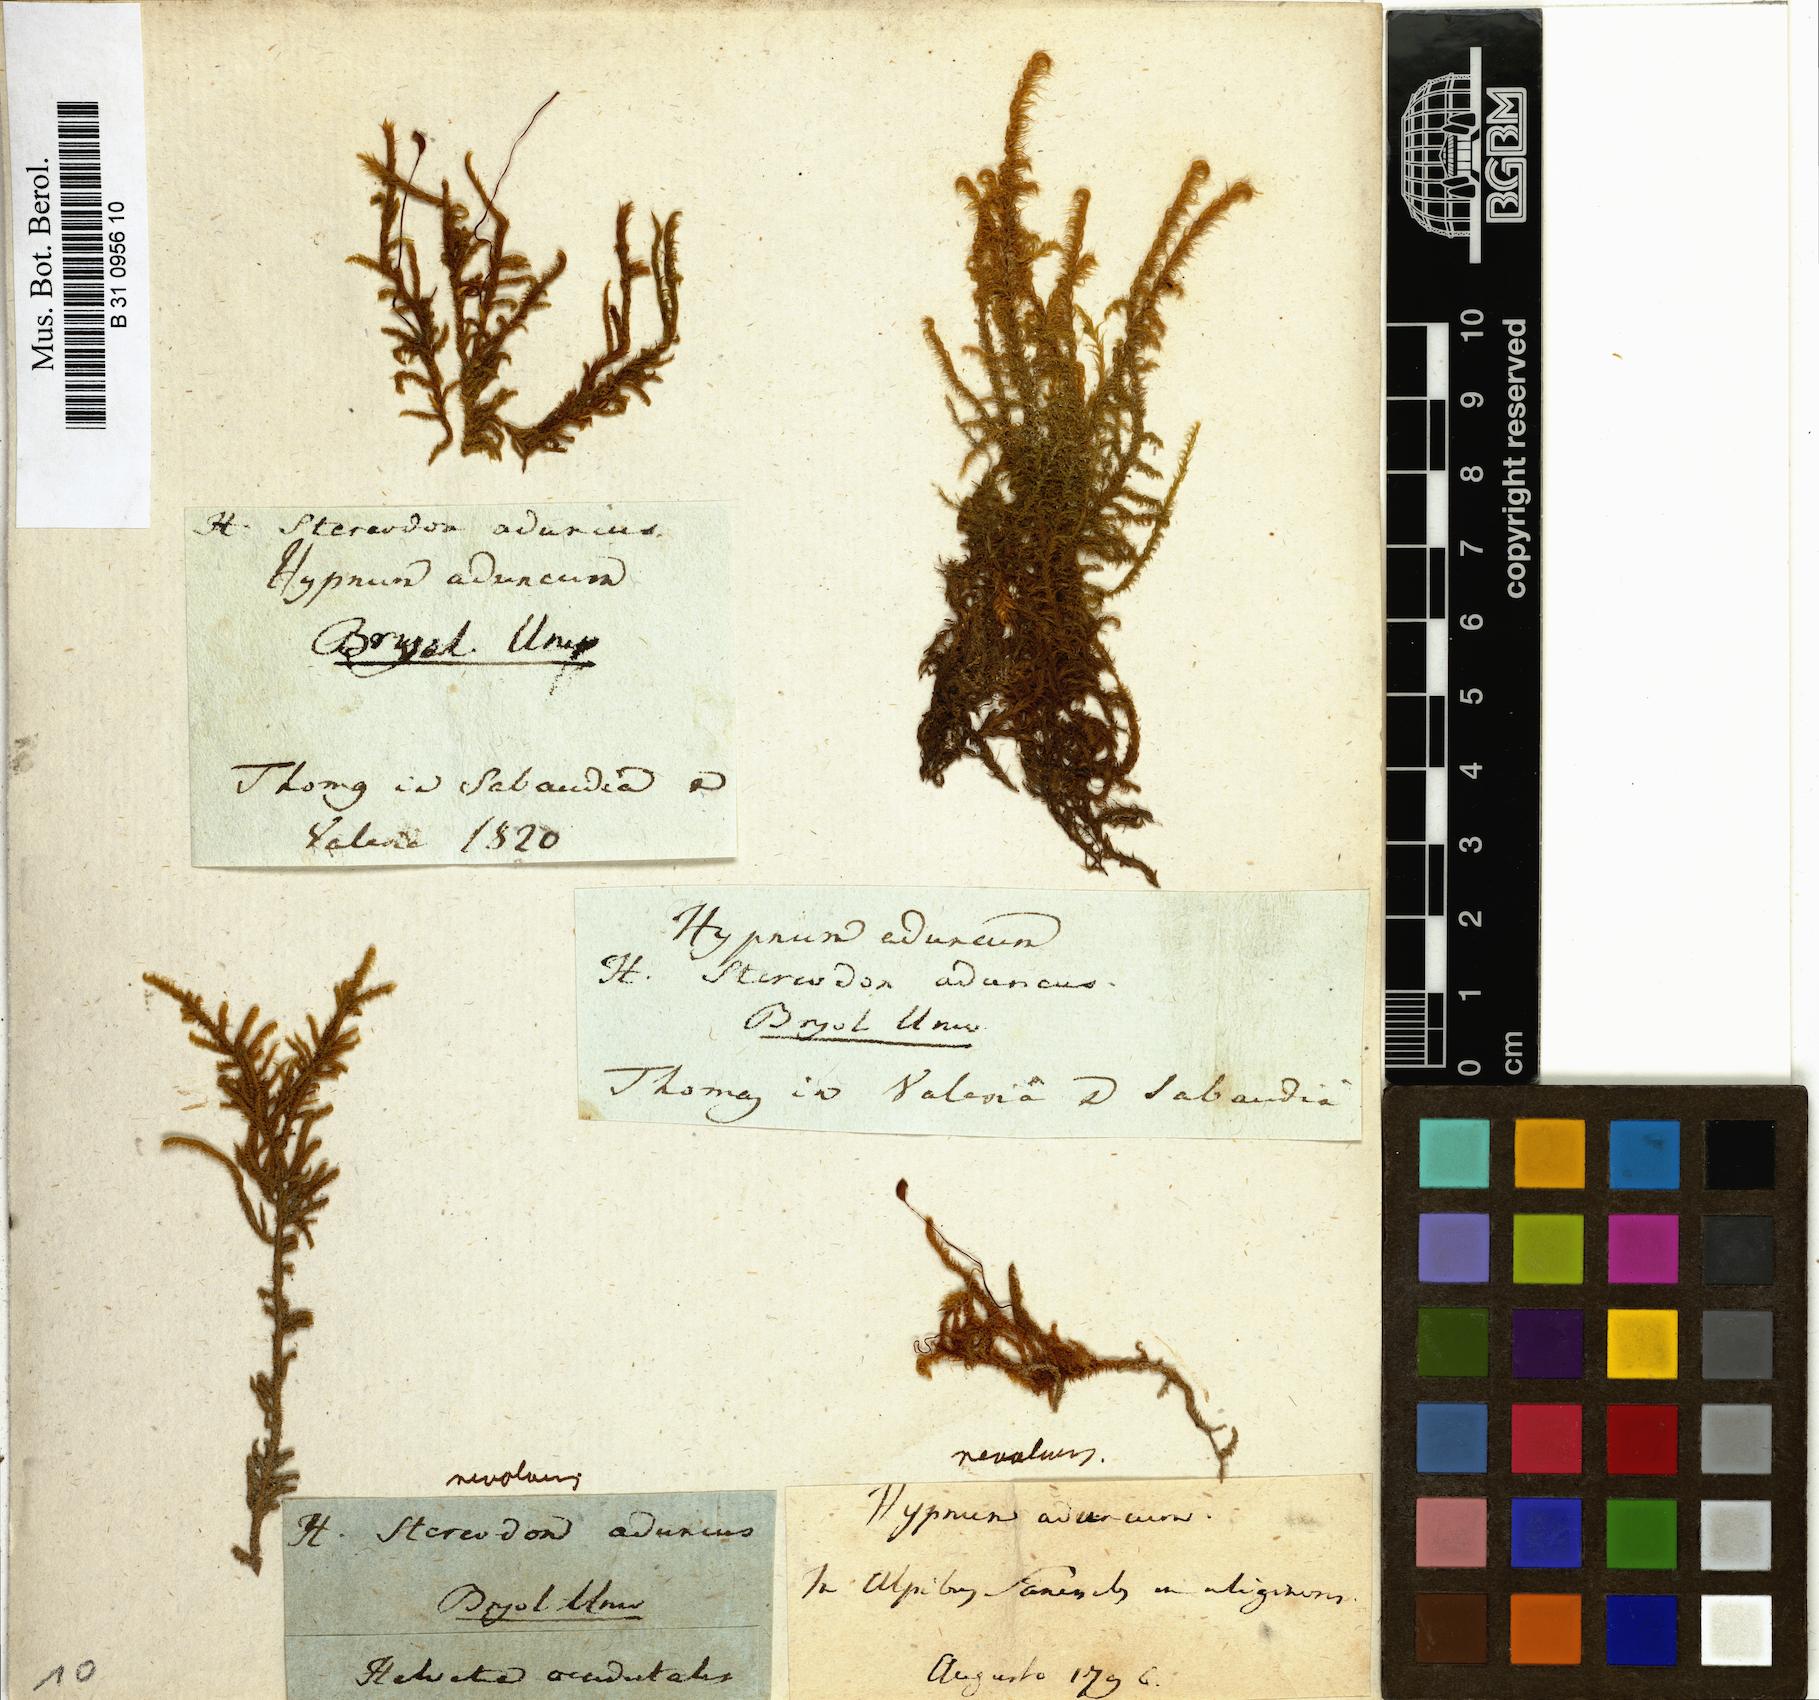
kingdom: Plantae
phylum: Bryophyta
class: Bryopsida
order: Hypnales
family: Amblystegiaceae
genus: Drepanocladus
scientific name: Drepanocladus aduncus
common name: Knieff's hook moss
